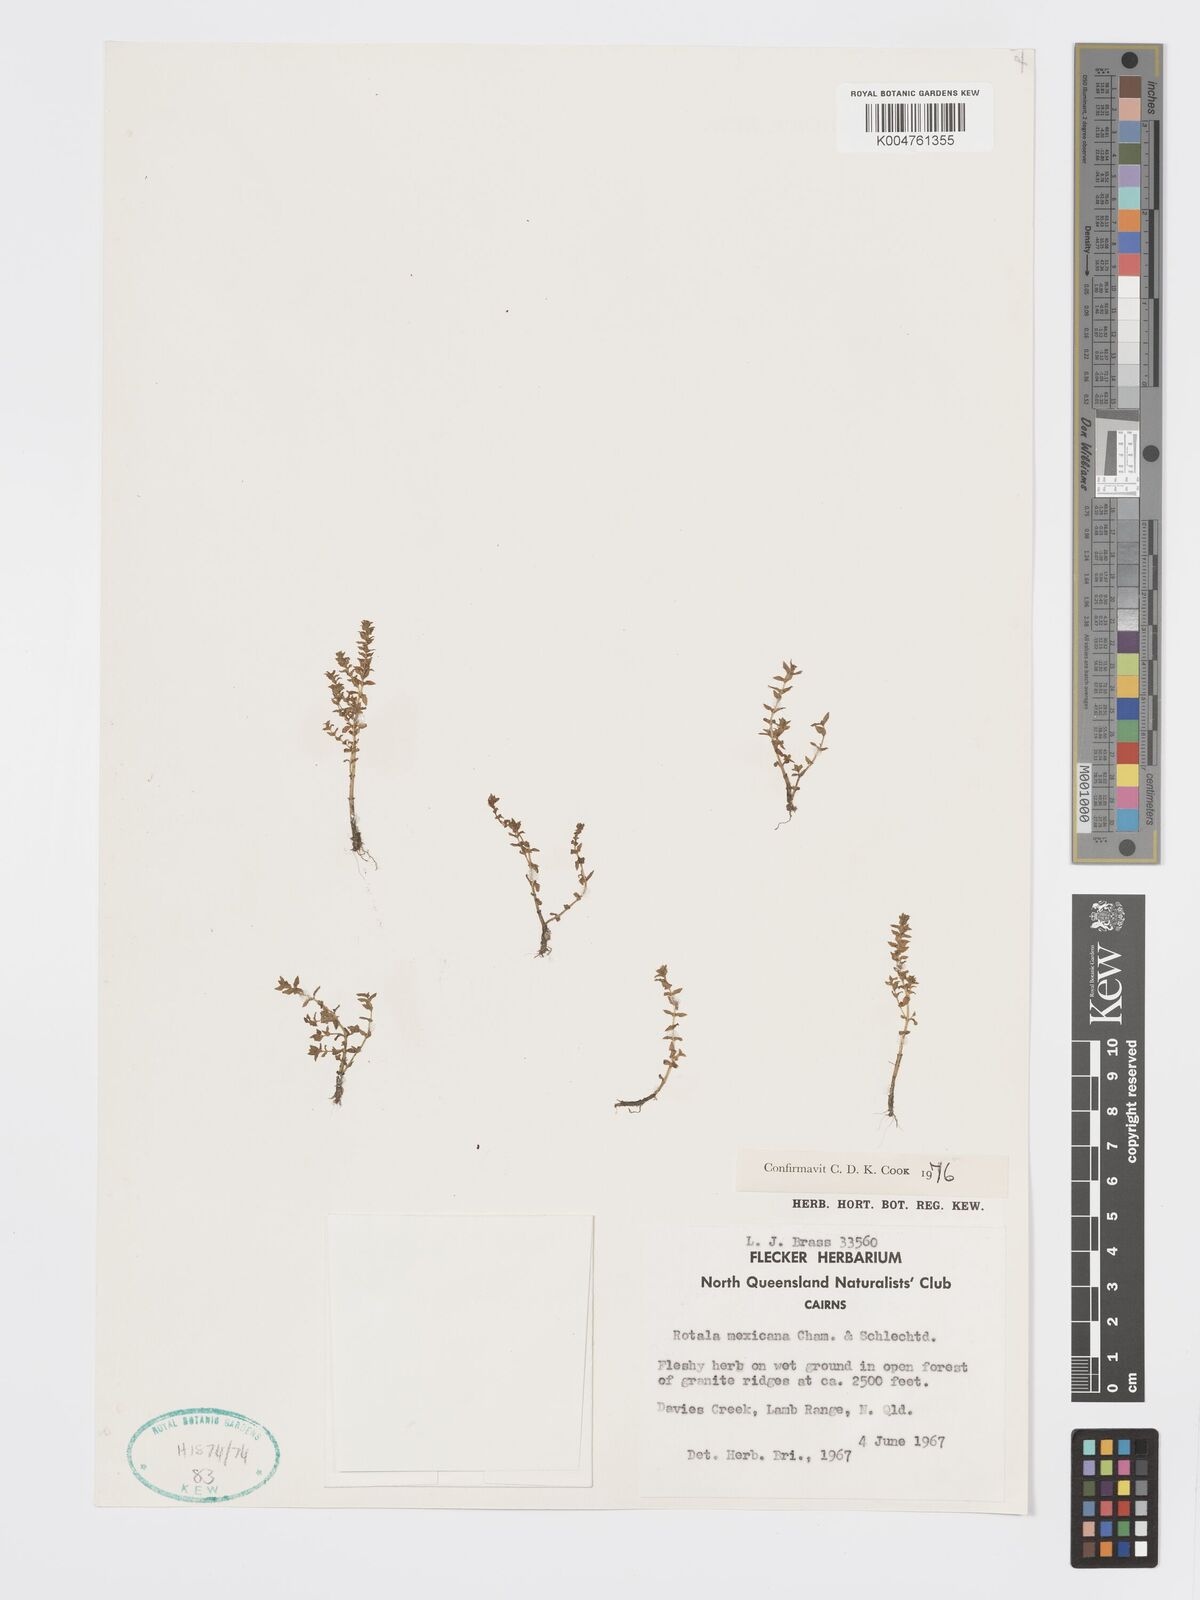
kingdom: Plantae
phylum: Tracheophyta
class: Magnoliopsida
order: Myrtales
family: Lythraceae
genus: Rotala
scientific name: Rotala mexicana
